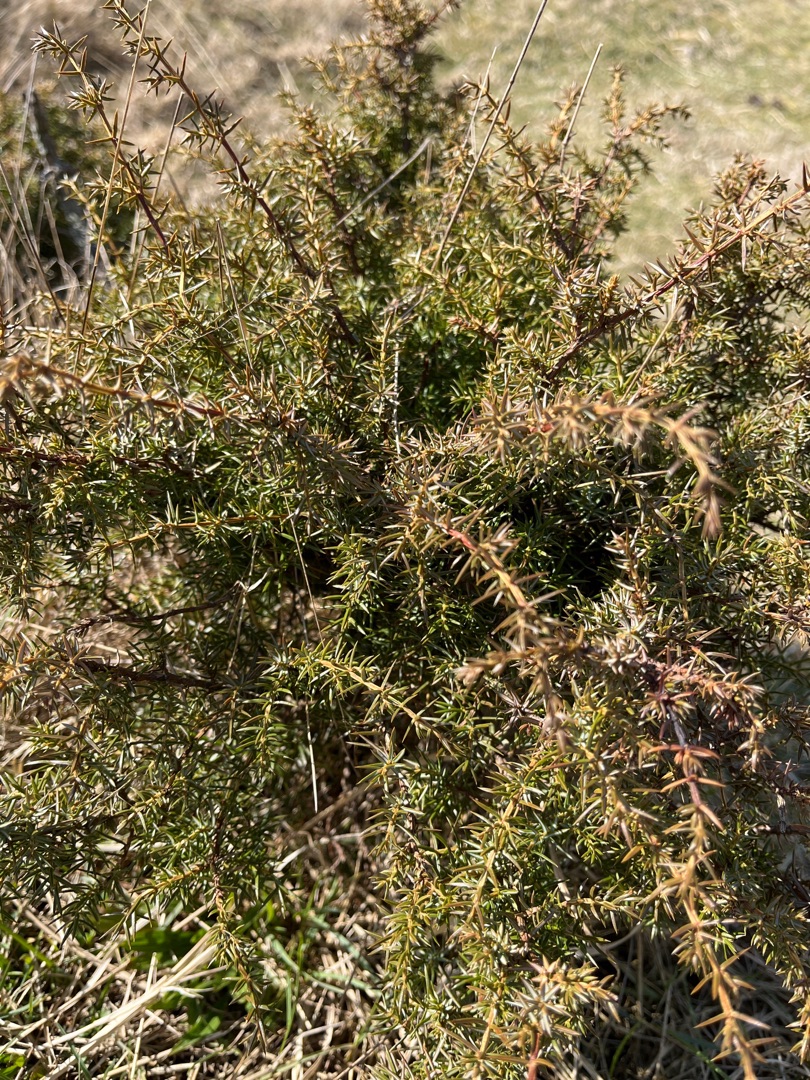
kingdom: Plantae
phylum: Tracheophyta
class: Pinopsida
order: Pinales
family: Cupressaceae
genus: Juniperus
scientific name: Juniperus communis
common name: Almindelig ene
